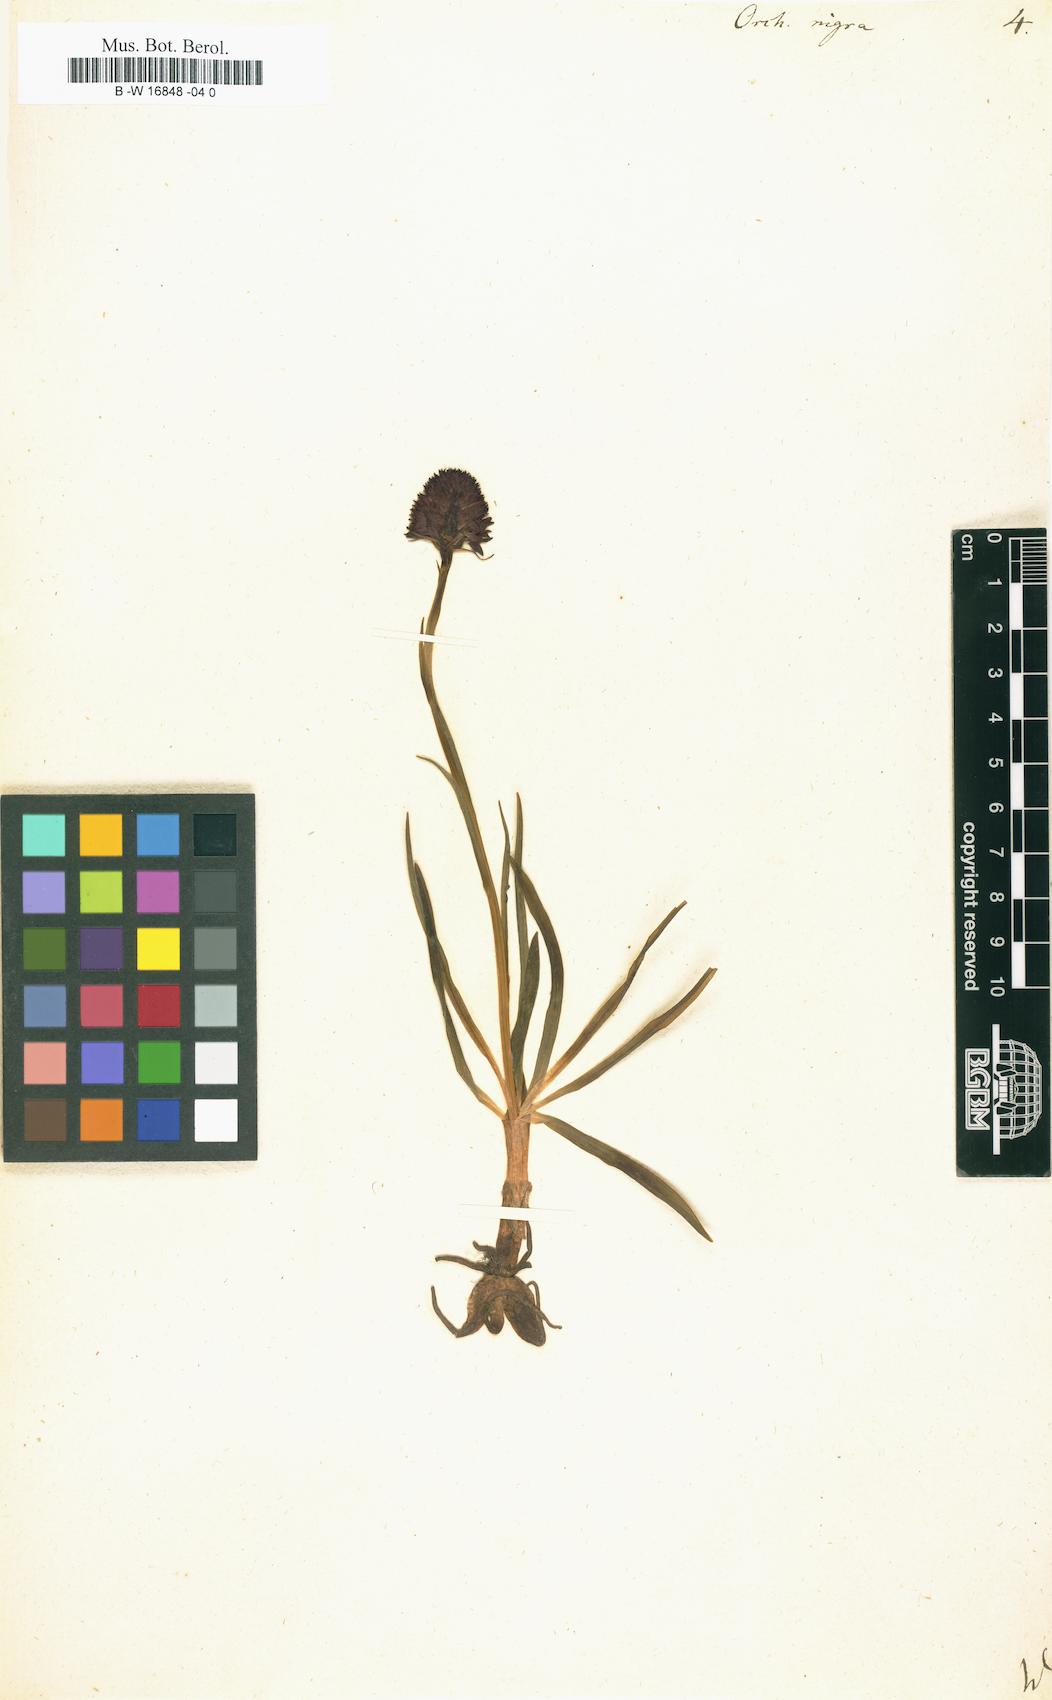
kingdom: Plantae
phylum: Tracheophyta
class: Liliopsida
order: Asparagales
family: Orchidaceae
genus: Gymnadenia
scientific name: Gymnadenia nigra
